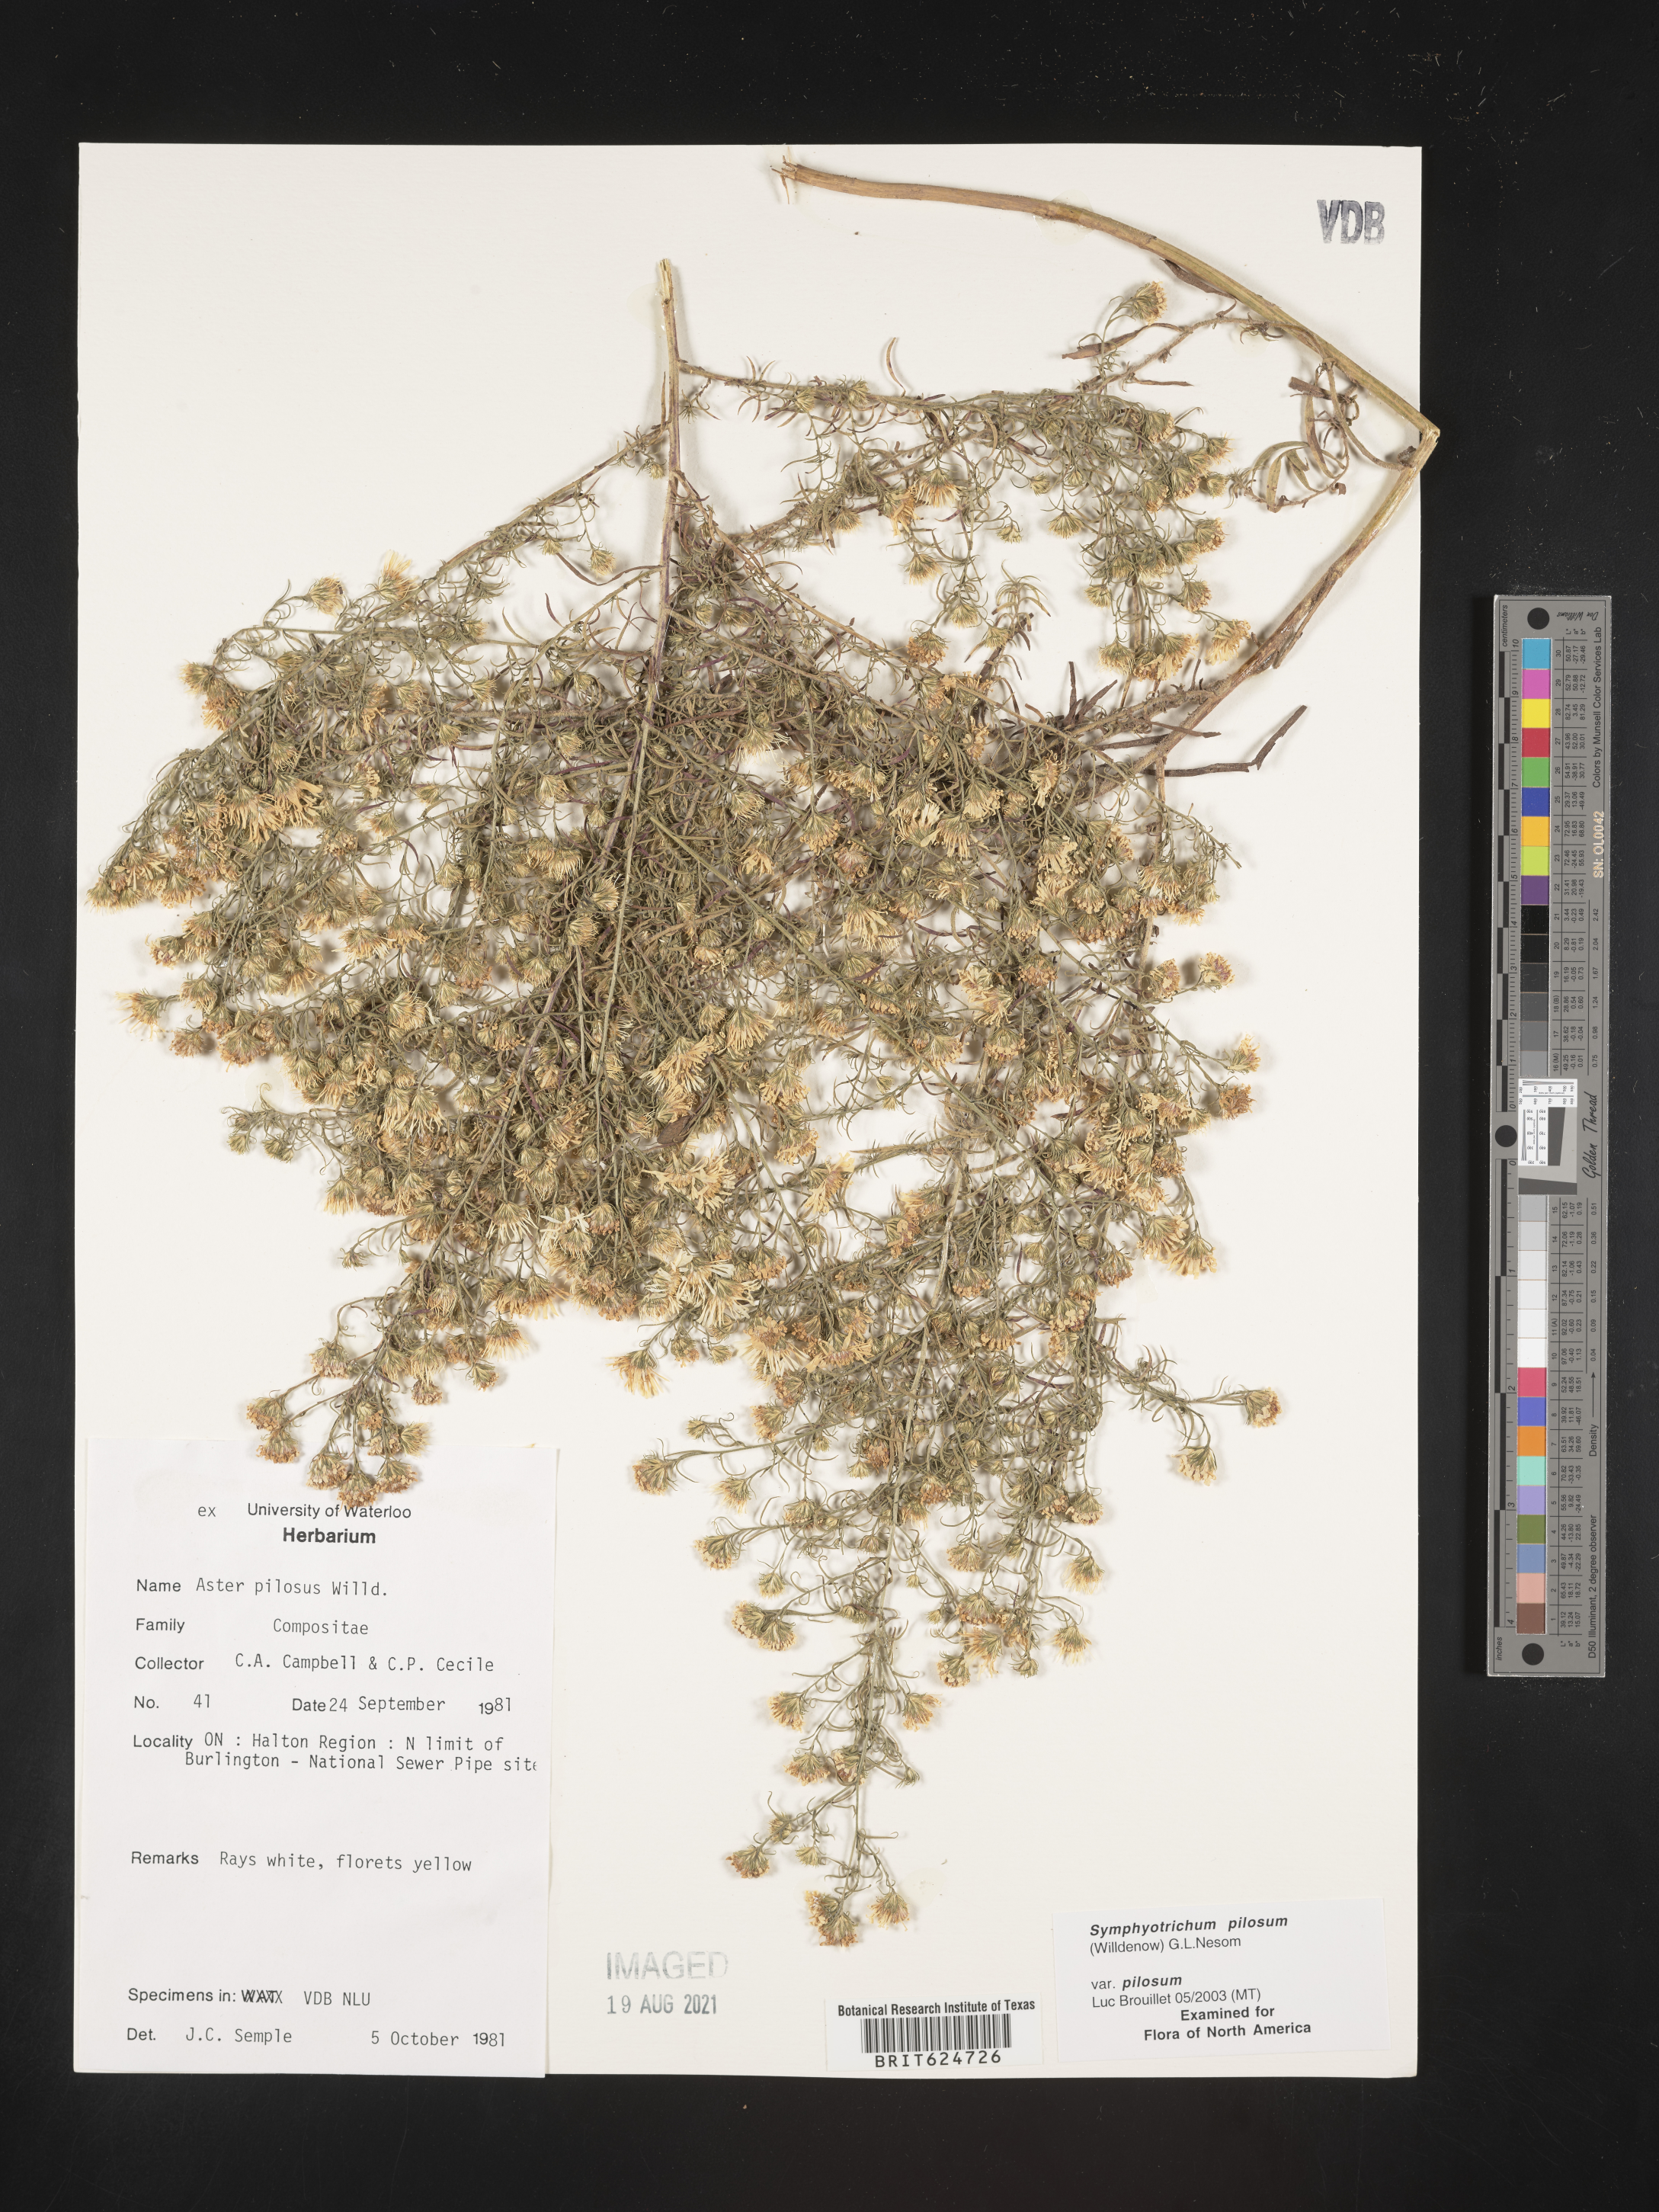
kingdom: Plantae
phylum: Tracheophyta
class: Magnoliopsida
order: Asterales
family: Asteraceae
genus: Symphyotrichum
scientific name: Symphyotrichum pilosum
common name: Awl aster
